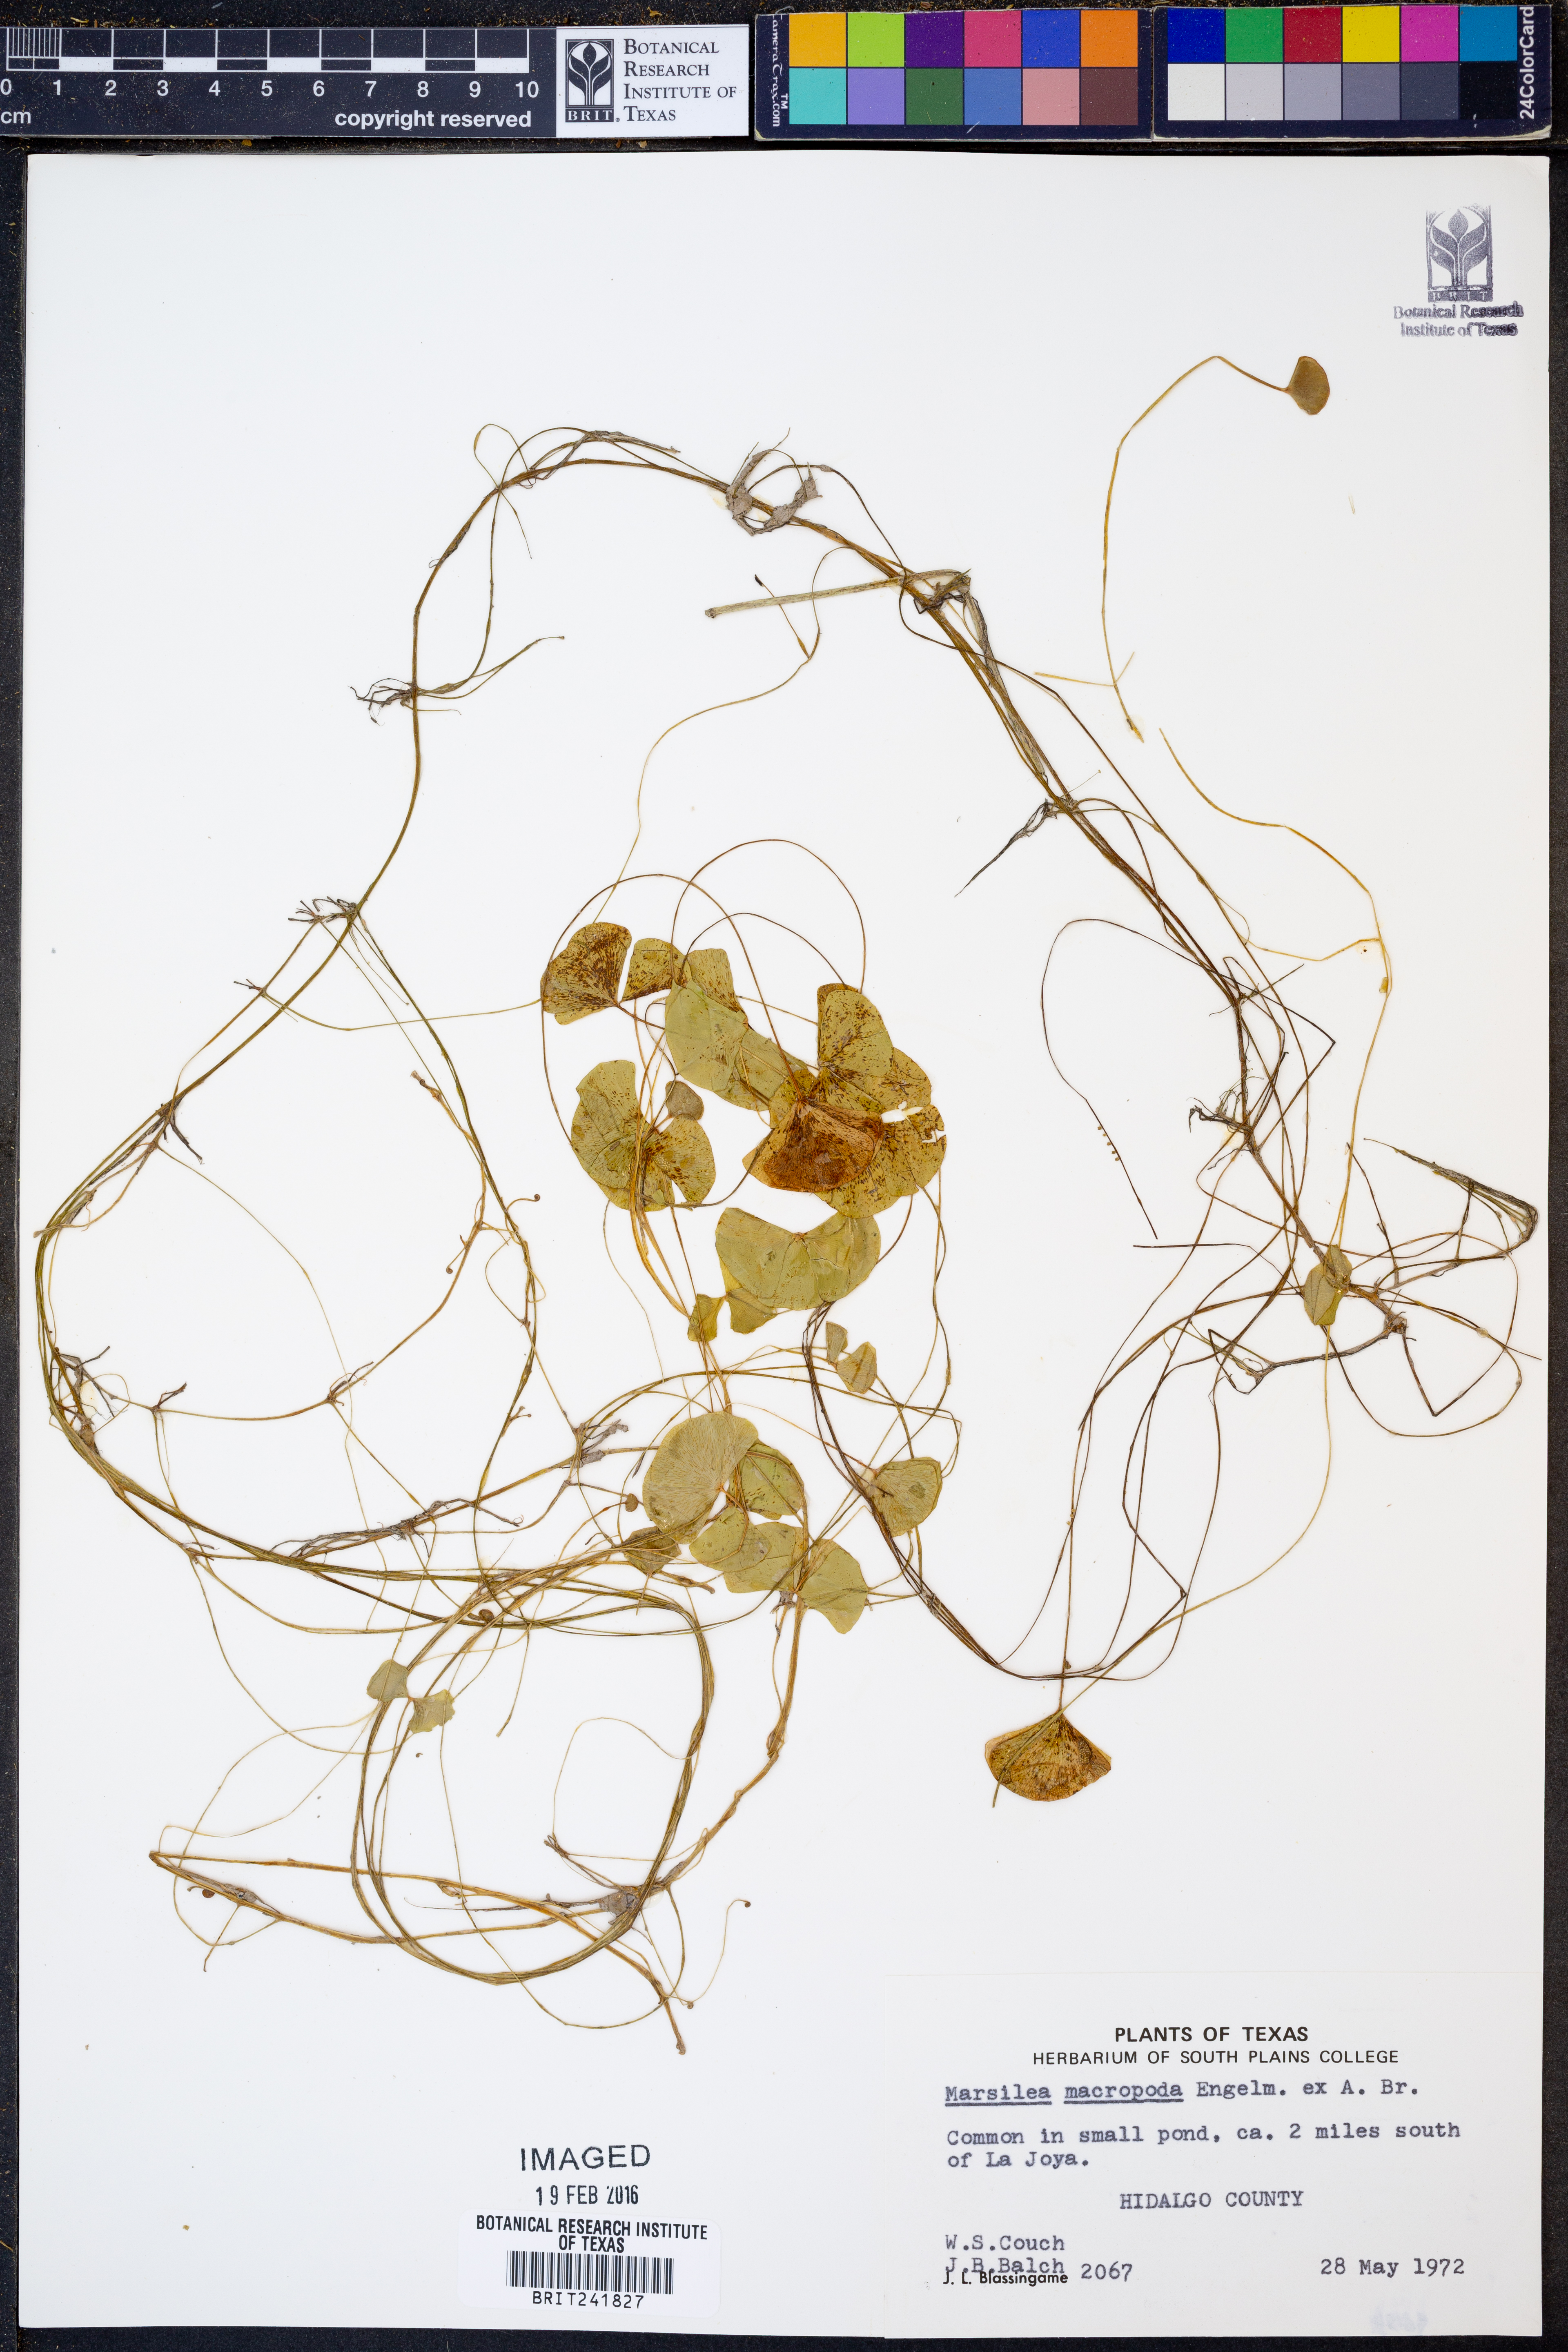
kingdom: Plantae
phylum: Tracheophyta
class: Polypodiopsida
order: Salviniales
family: Marsileaceae
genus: Marsilea
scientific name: Marsilea macropoda
